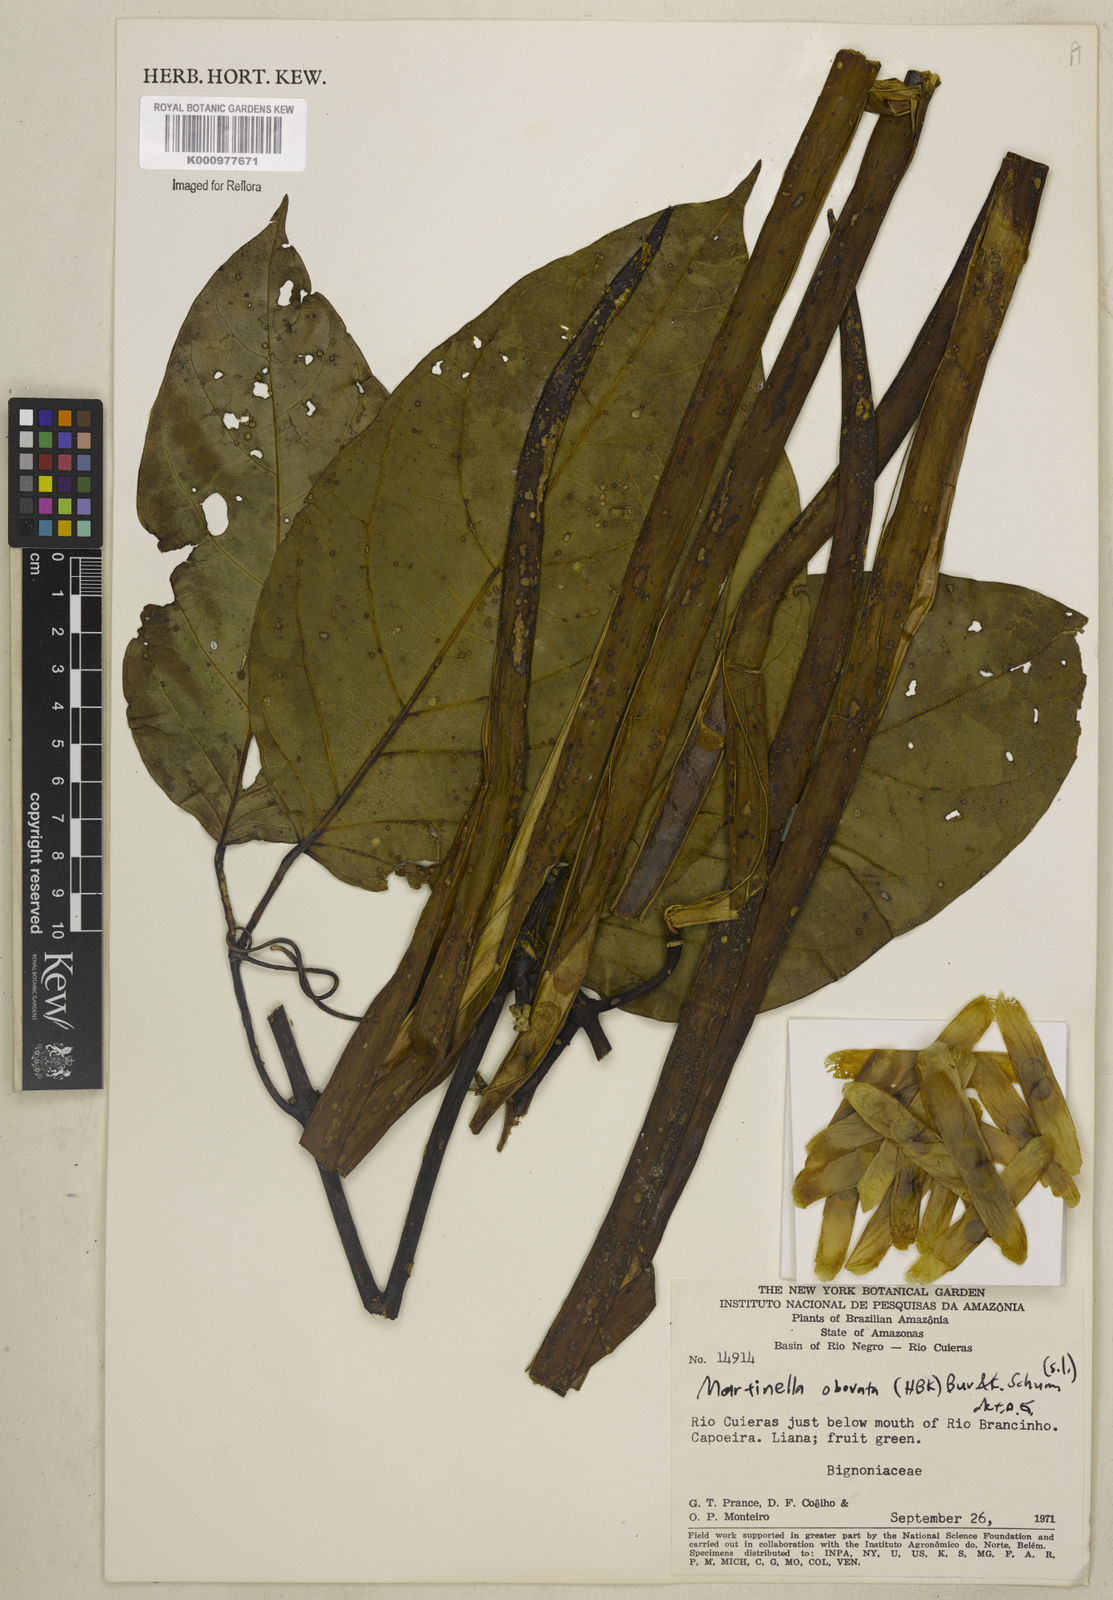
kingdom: Animalia
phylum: Arthropoda
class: Insecta
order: Coleoptera
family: Chrysomelidae
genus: Martinella
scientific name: Martinella obovata
